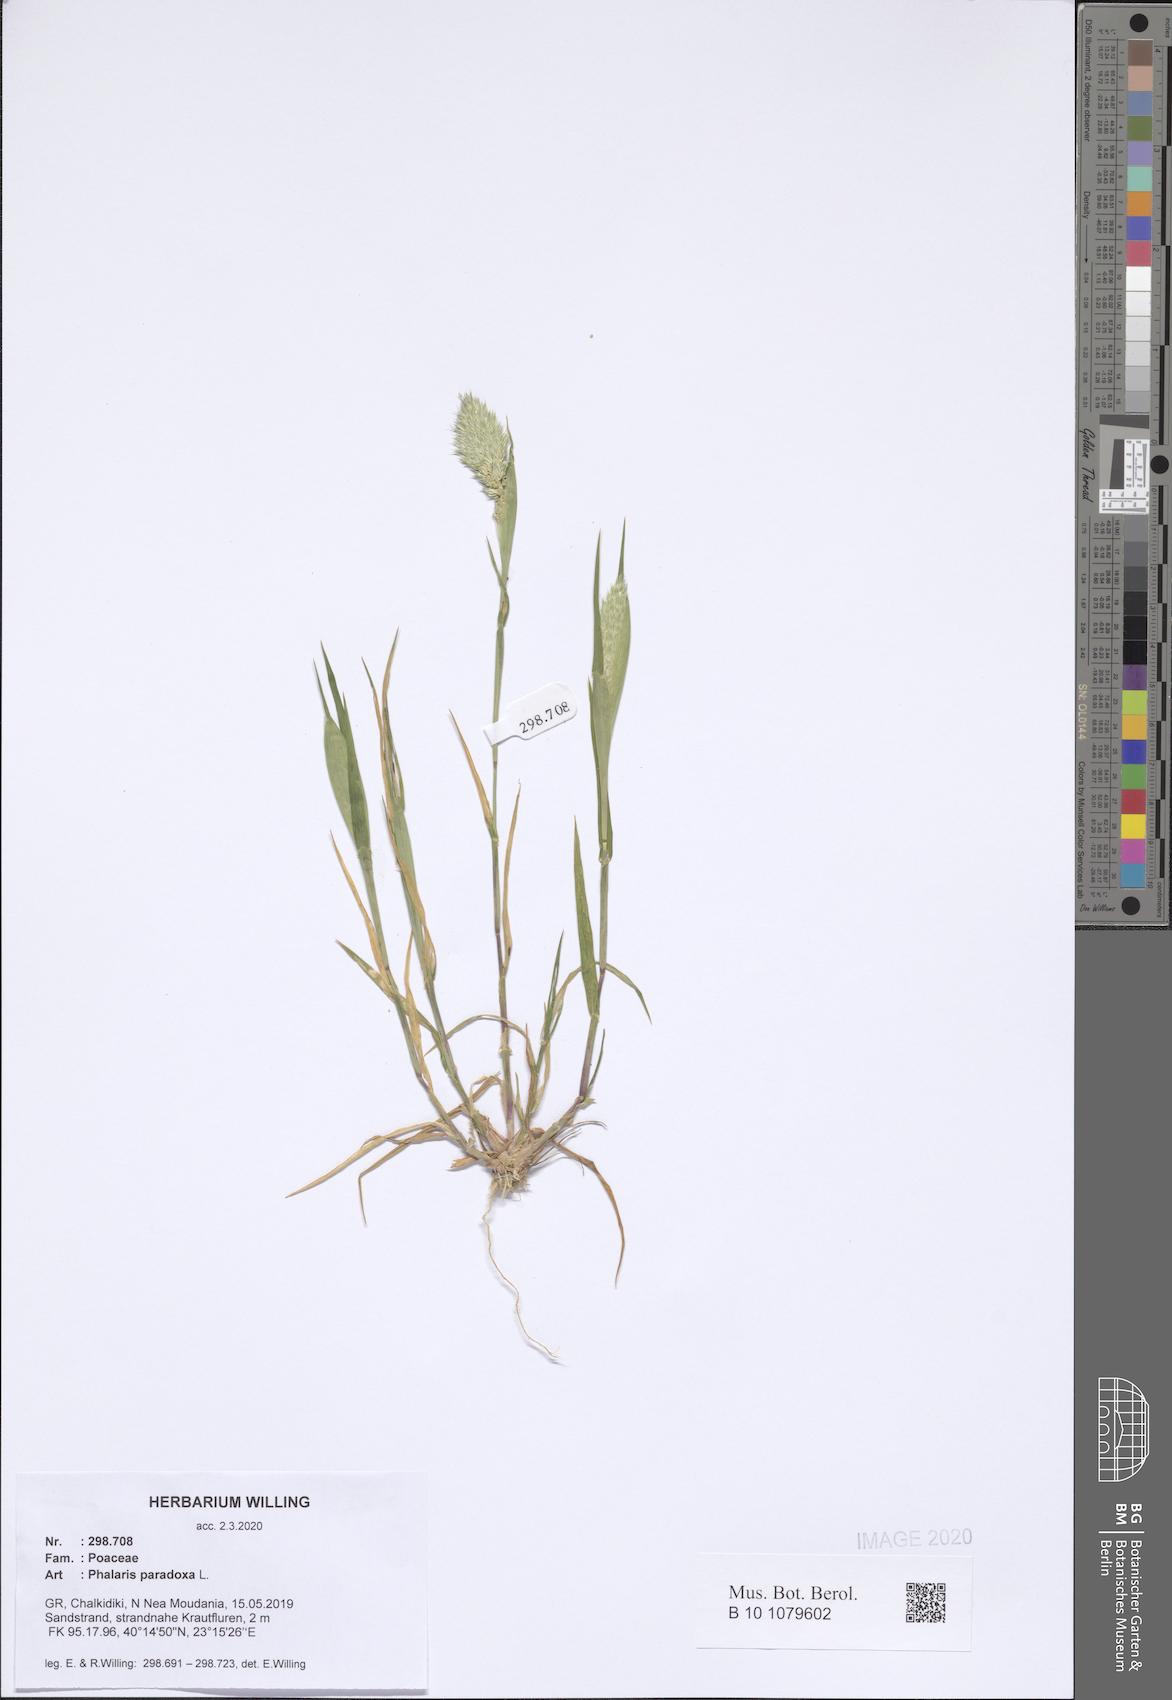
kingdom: Plantae
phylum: Tracheophyta
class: Liliopsida
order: Poales
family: Poaceae
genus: Phalaris
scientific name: Phalaris paradoxa
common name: Awned canary-grass
